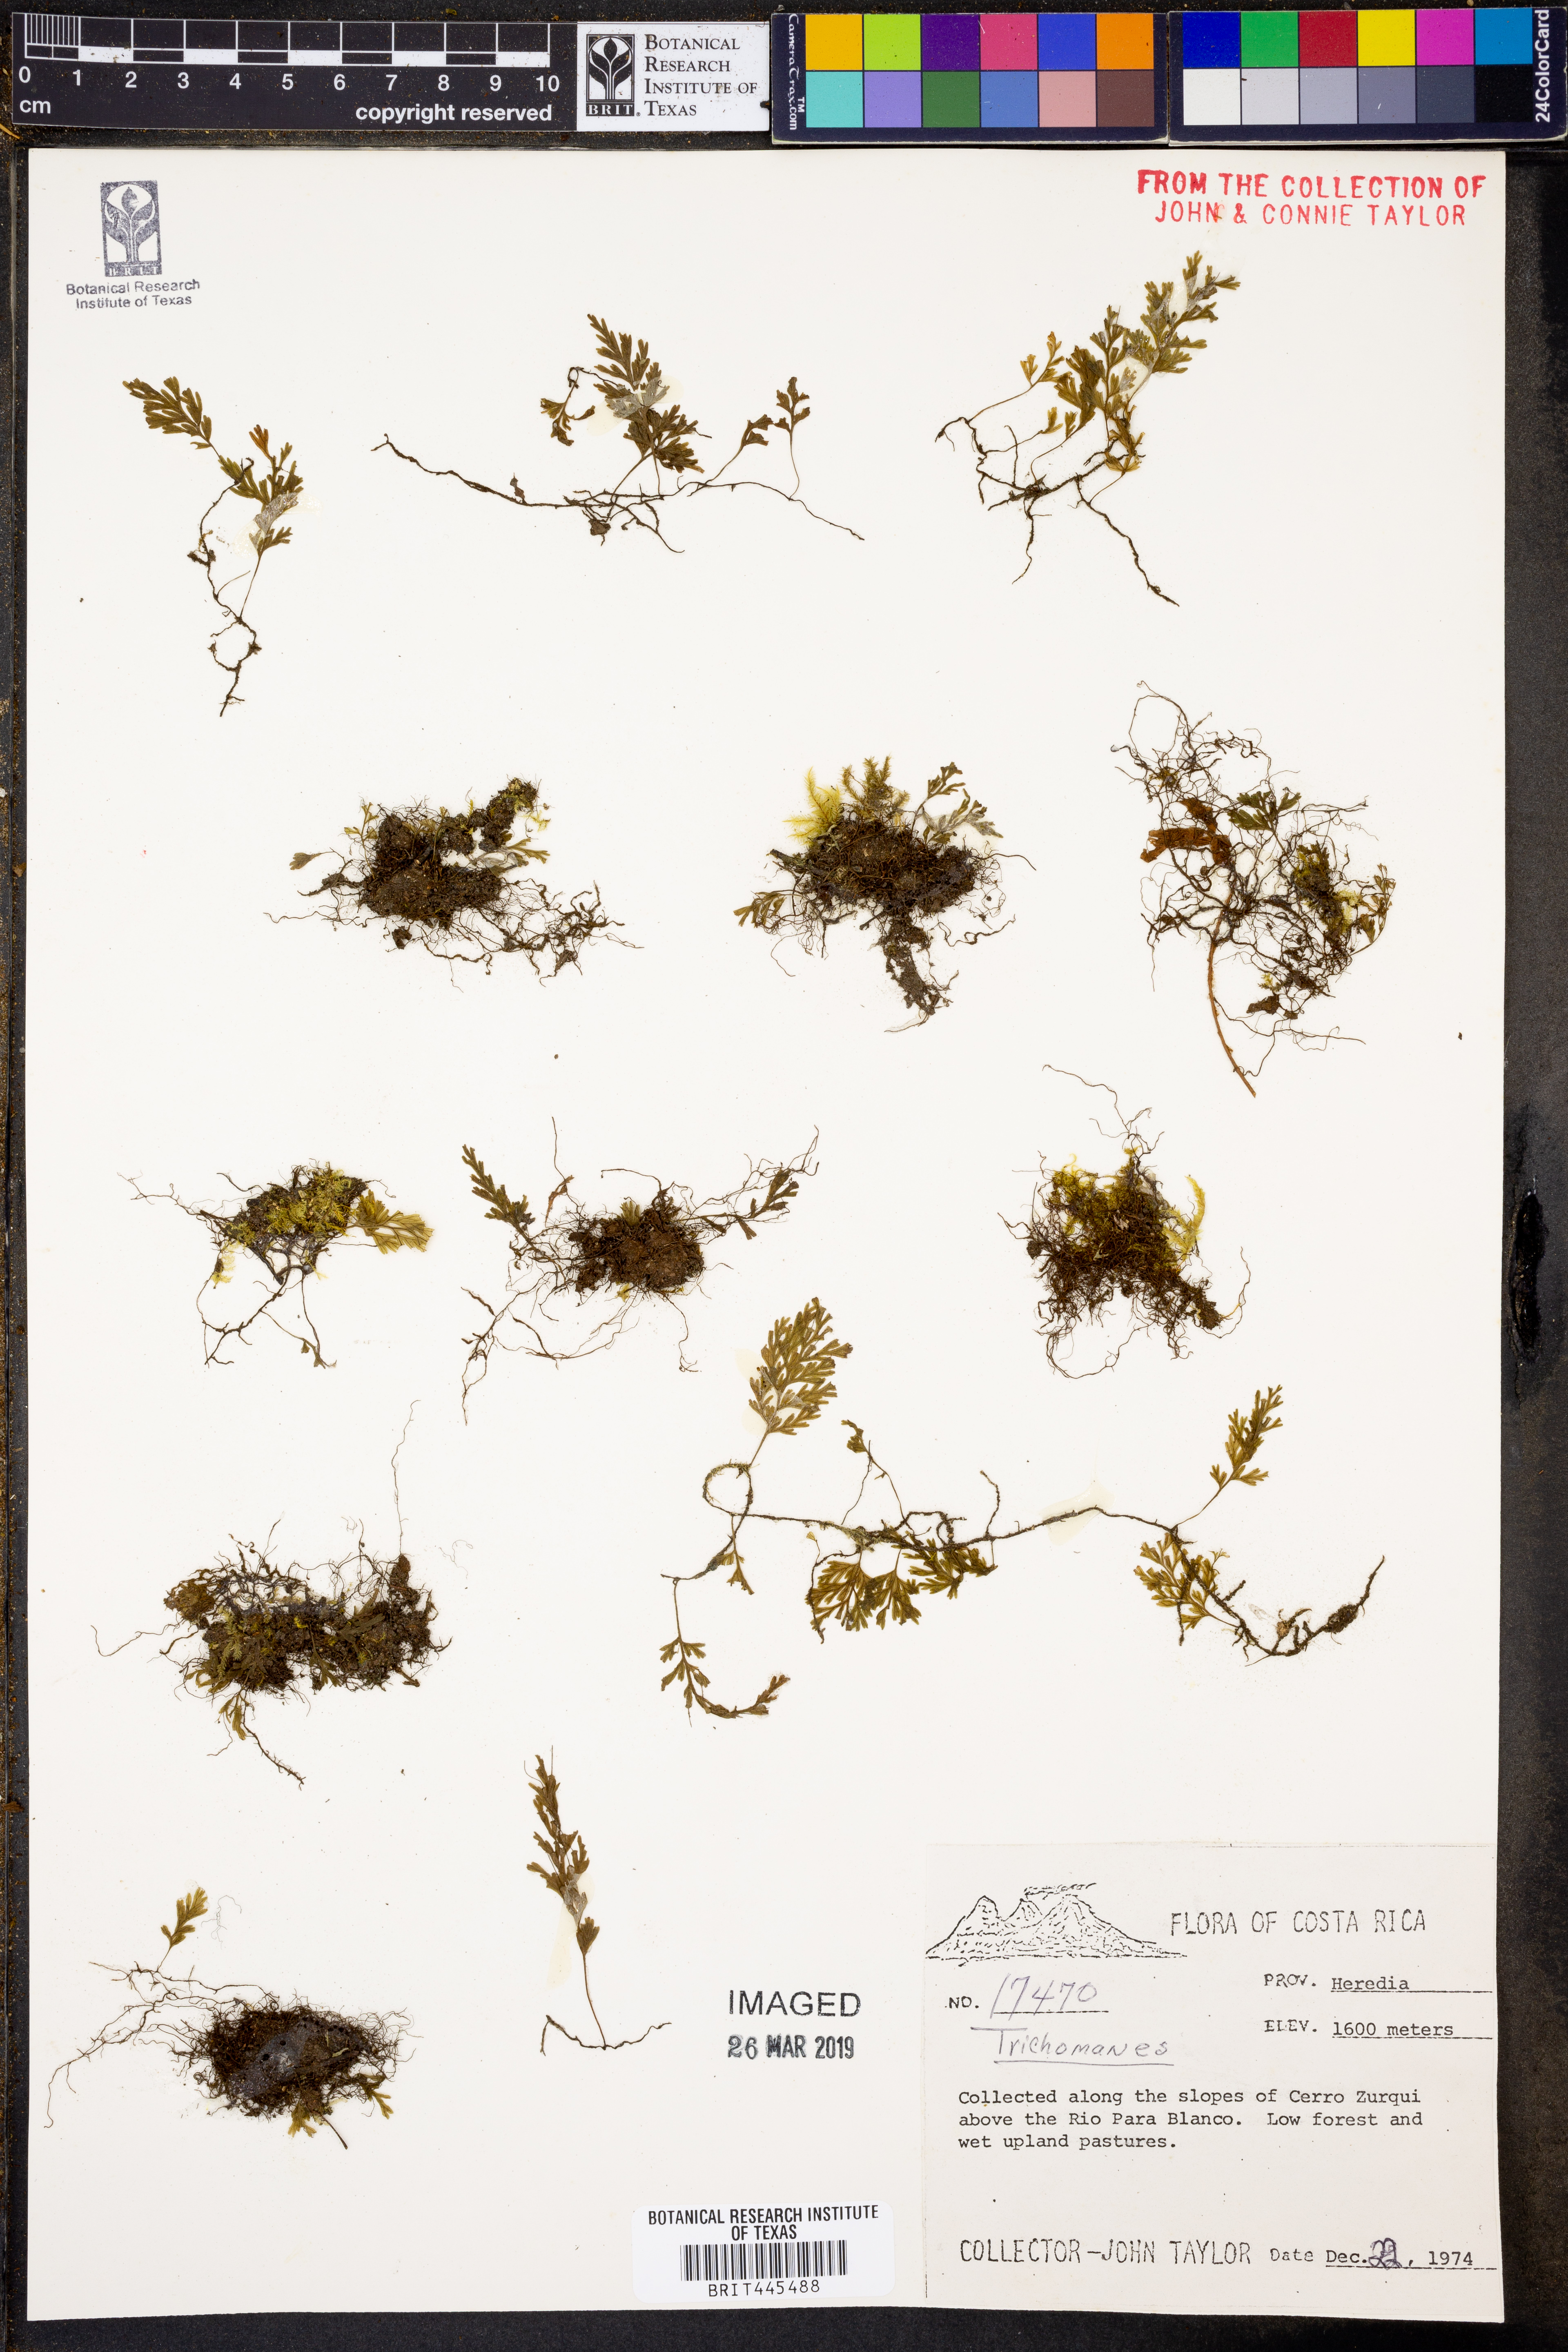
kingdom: Plantae
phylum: Tracheophyta
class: Polypodiopsida
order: Hymenophyllales
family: Hymenophyllaceae
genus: Trichomanes
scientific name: Trichomanes
